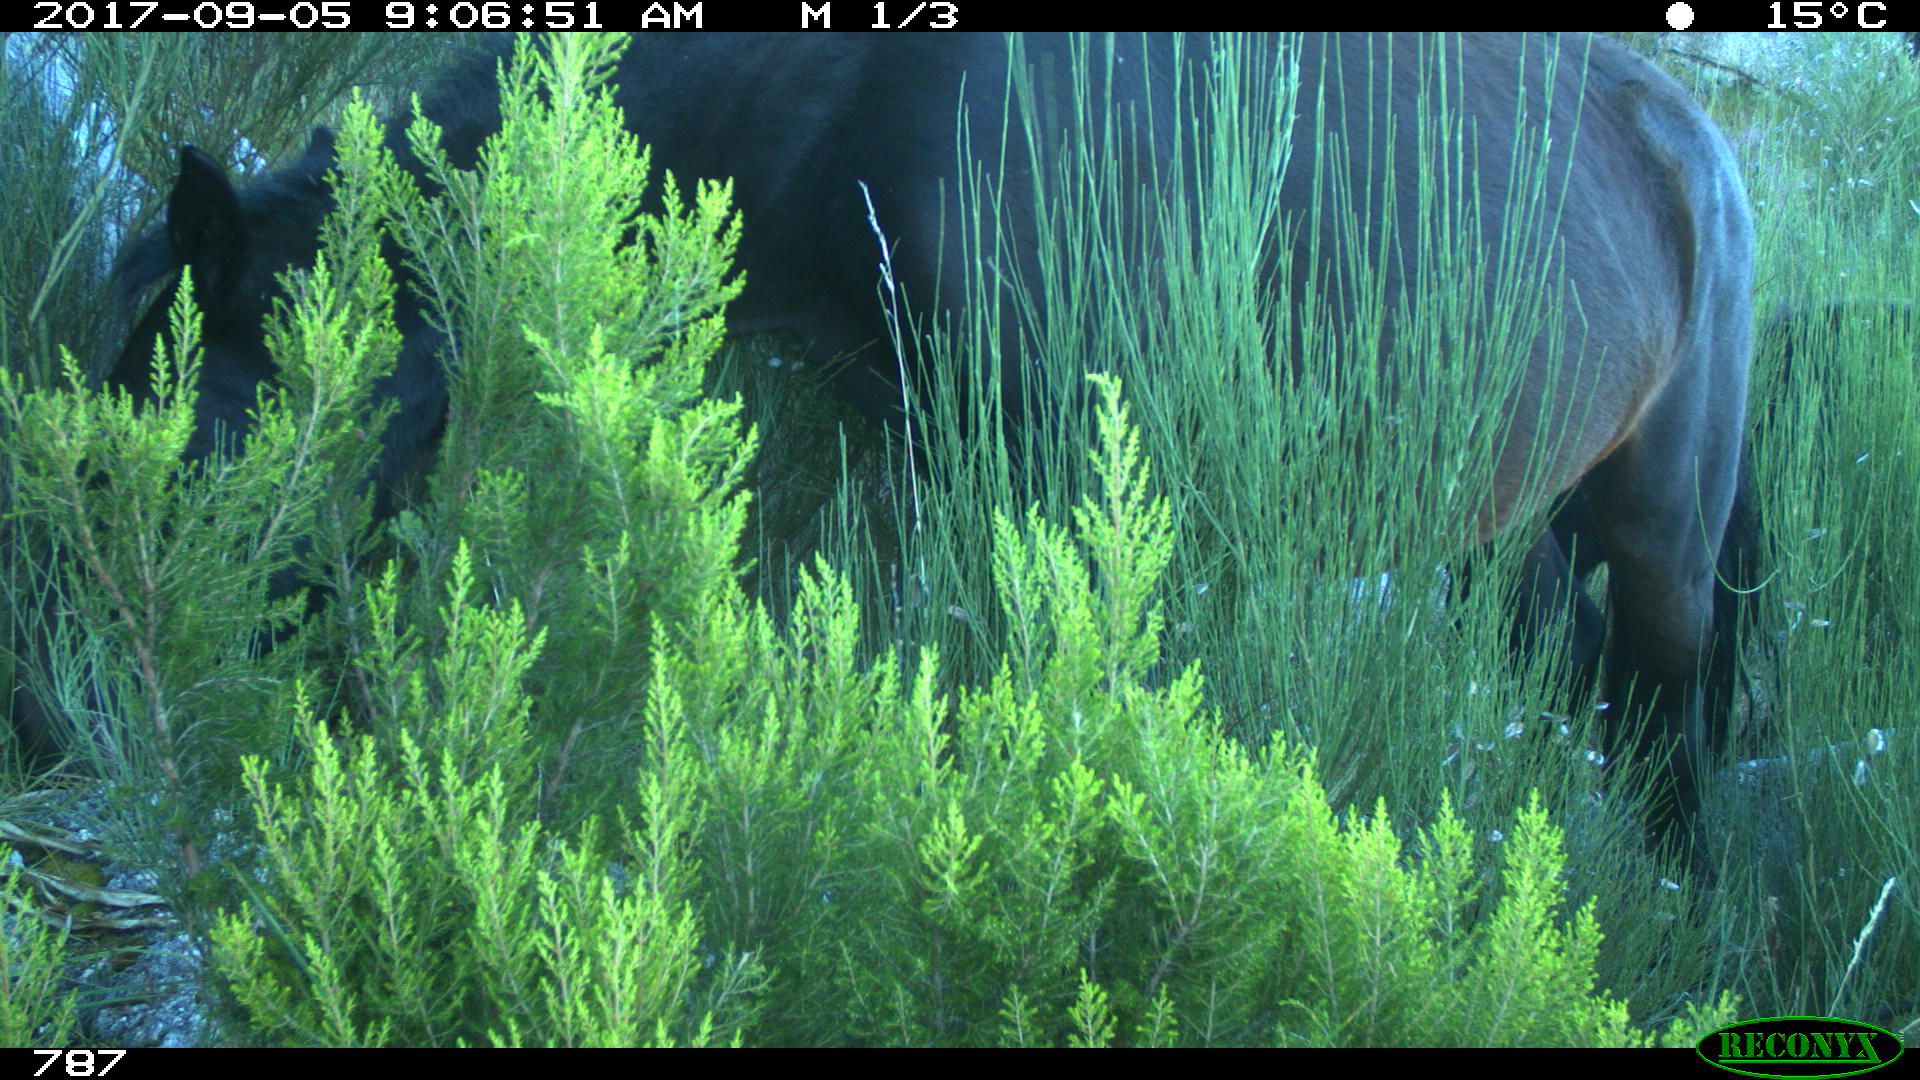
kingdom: Animalia
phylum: Chordata
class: Mammalia
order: Perissodactyla
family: Equidae
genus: Equus
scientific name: Equus caballus
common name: Horse
